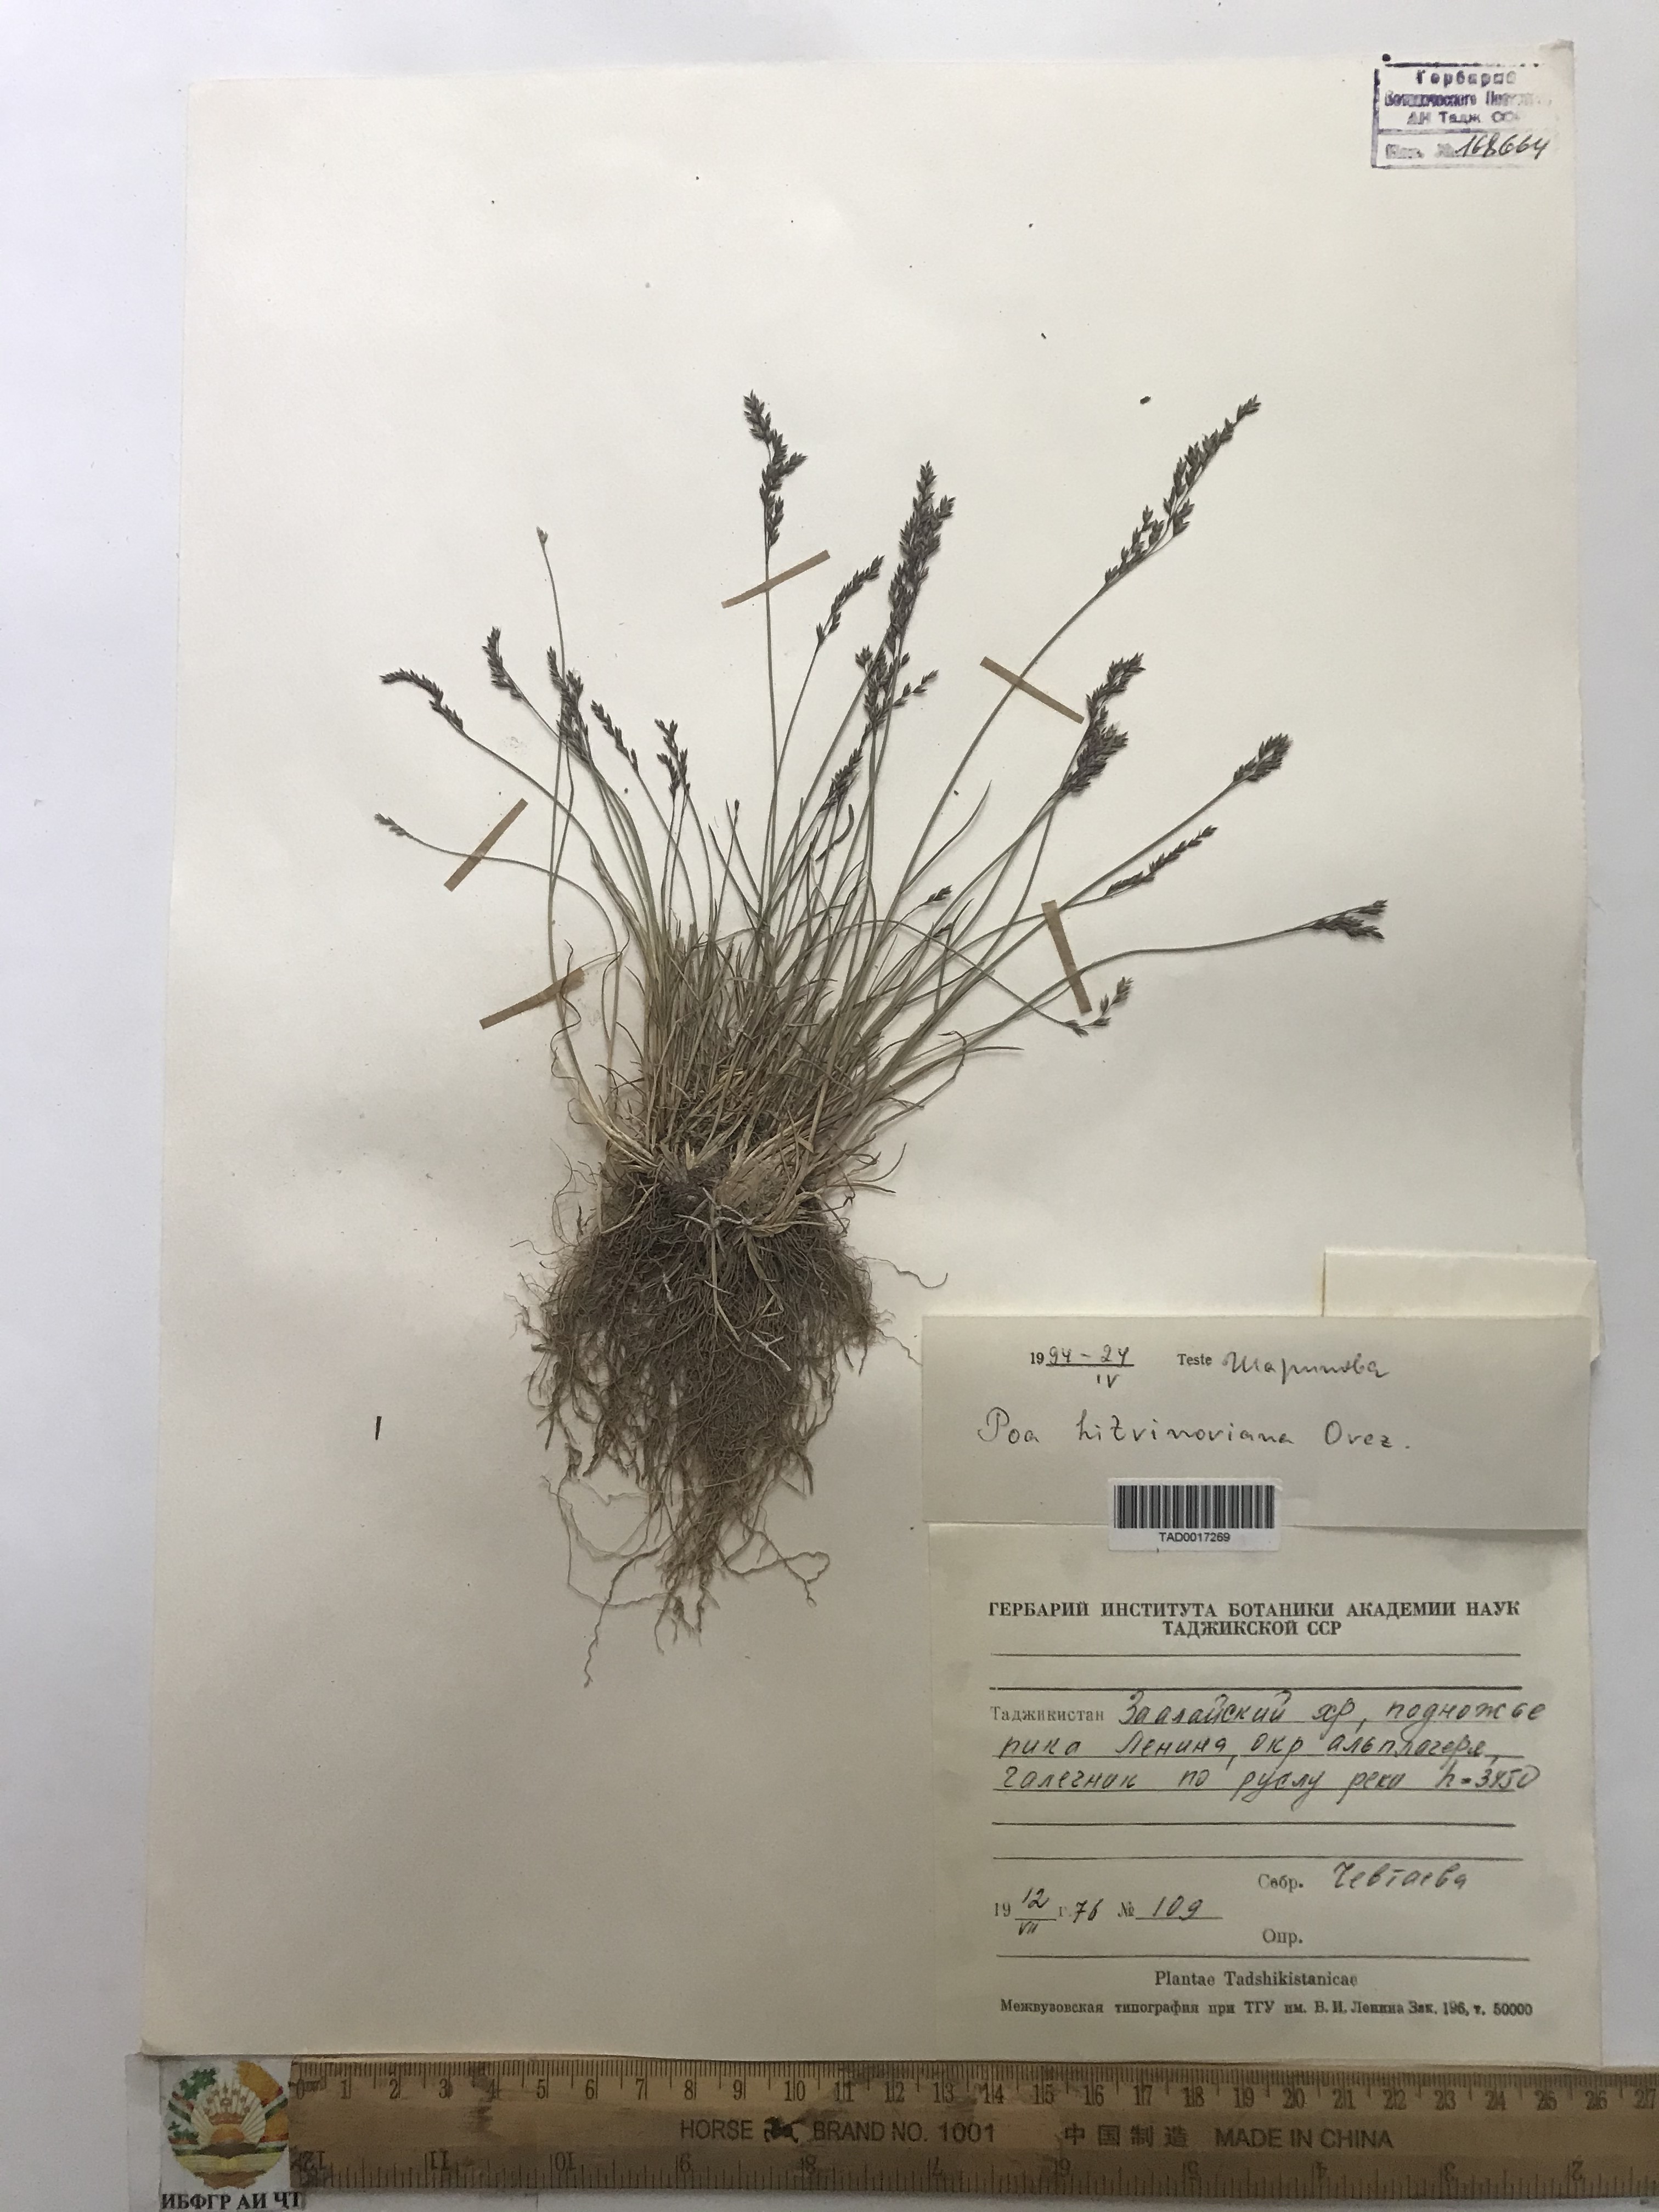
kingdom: Plantae
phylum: Tracheophyta
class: Liliopsida
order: Poales
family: Poaceae
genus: Poa
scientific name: Poa glauca
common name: Glaucous bluegrass
